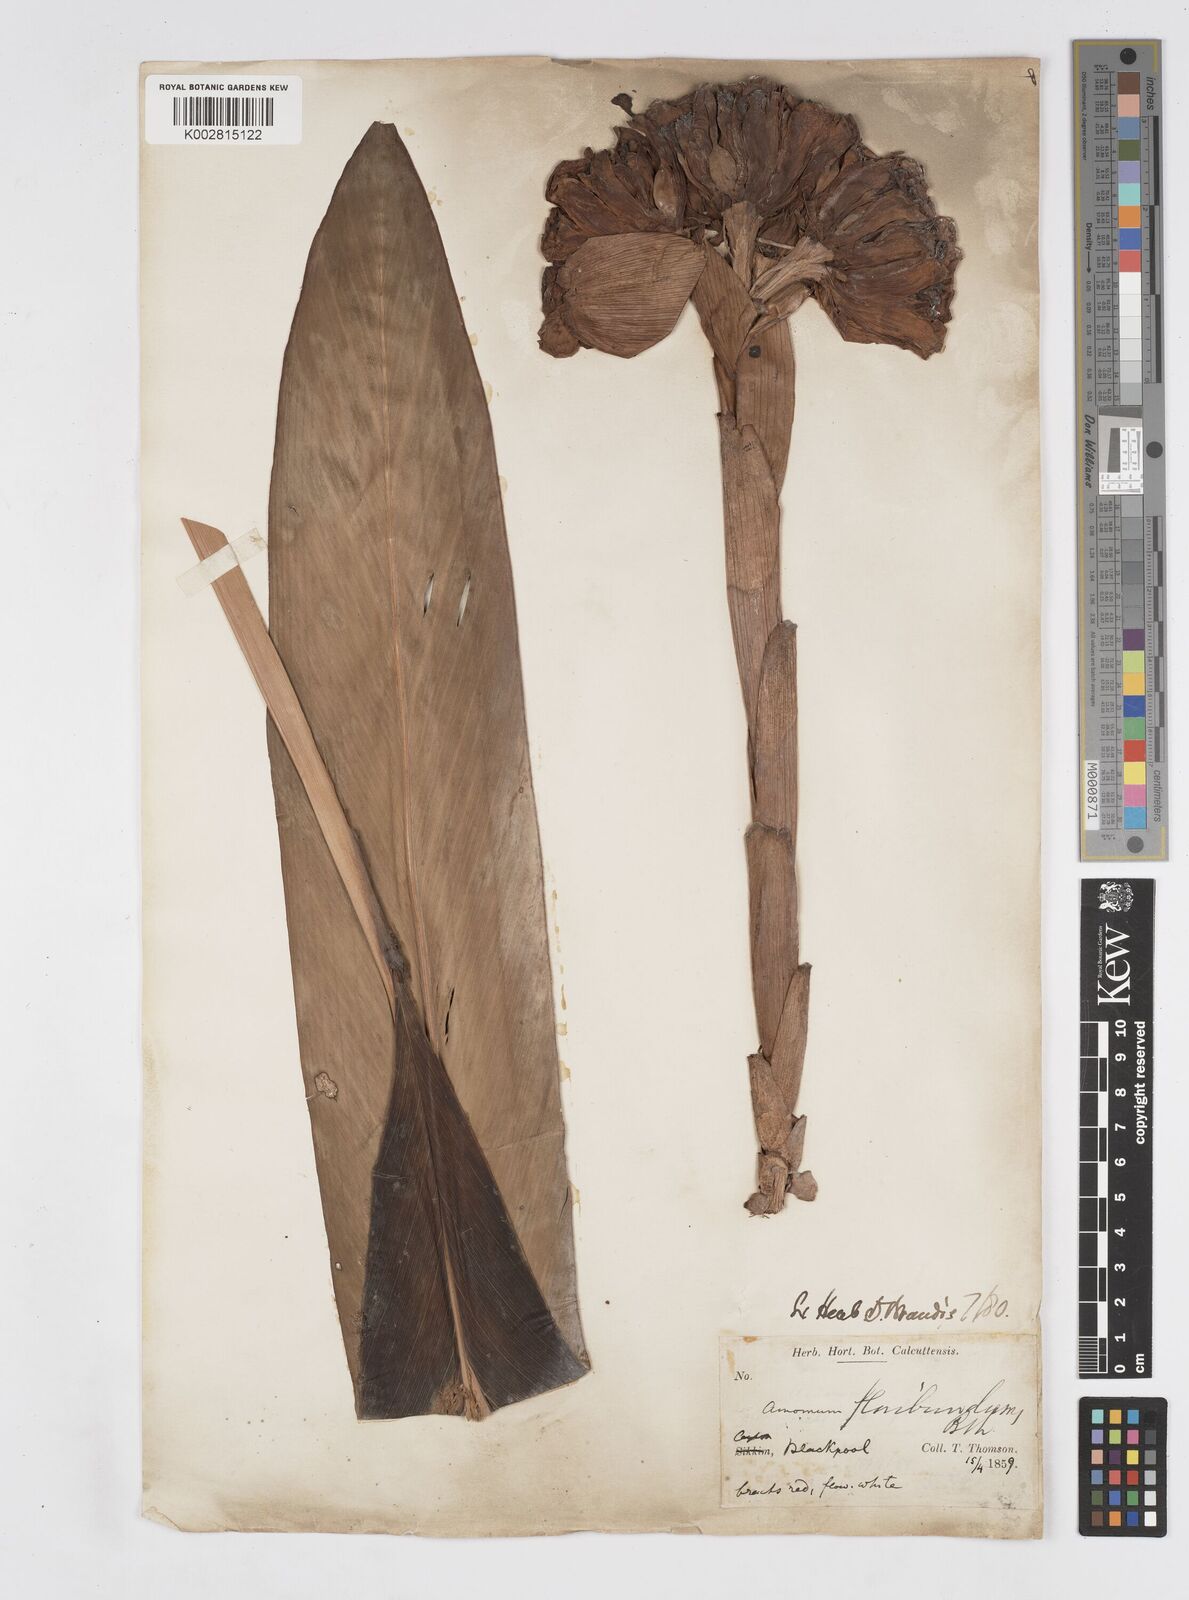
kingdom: Plantae
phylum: Tracheophyta
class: Liliopsida
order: Zingiberales
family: Zingiberaceae
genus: Alpinia
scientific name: Alpinia abundiflora
